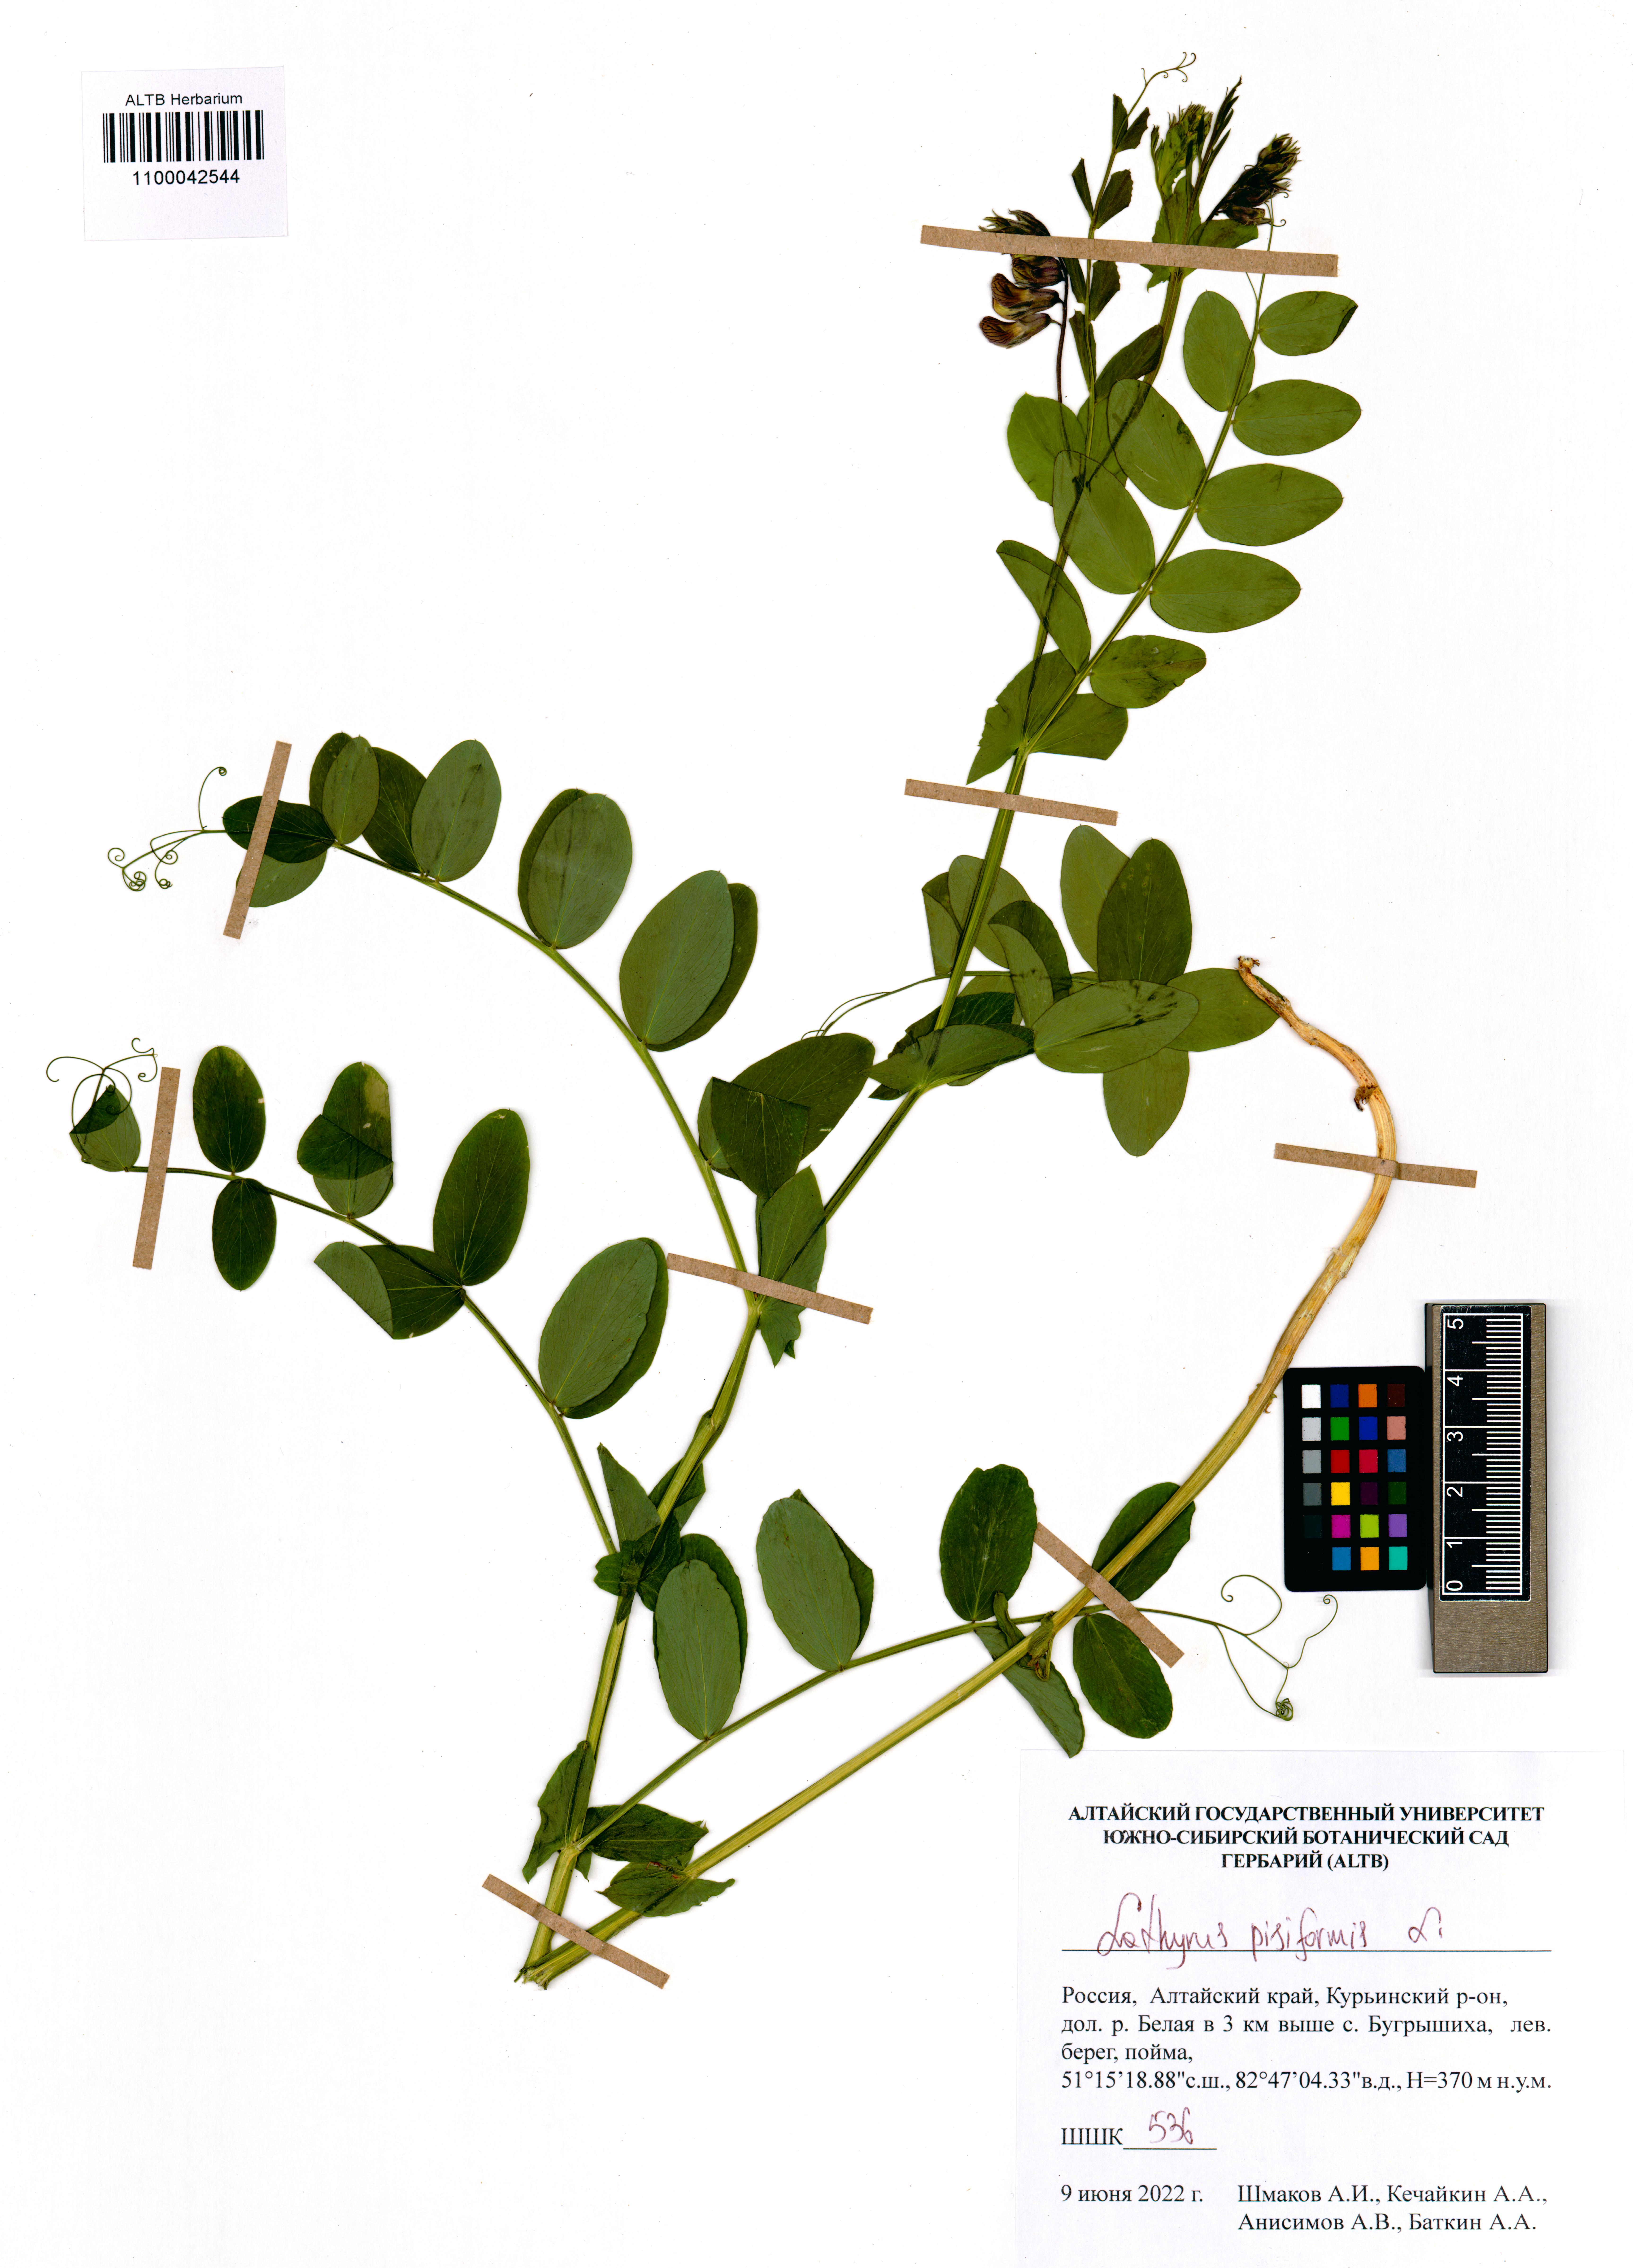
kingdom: Plantae
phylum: Tracheophyta
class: Magnoliopsida
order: Fabales
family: Fabaceae
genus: Lathyrus
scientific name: Lathyrus pisiformis
